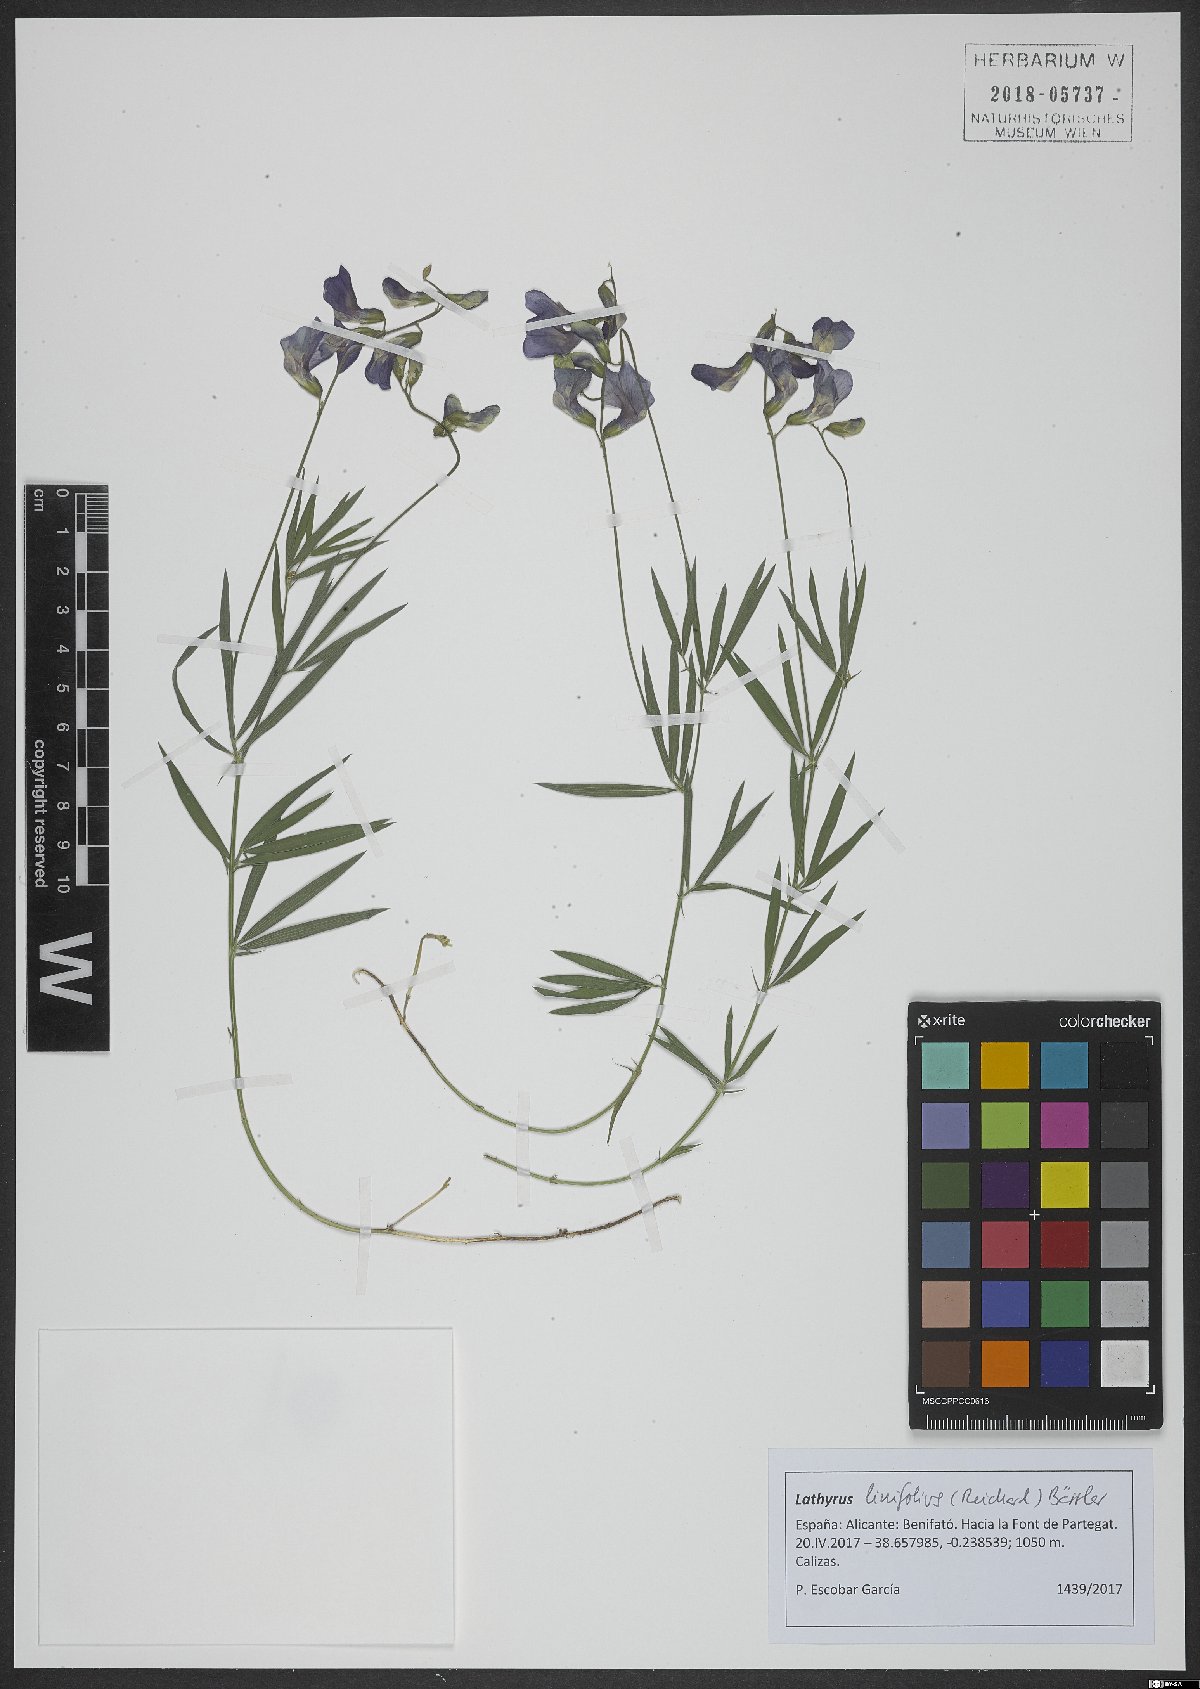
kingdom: Plantae
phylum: Tracheophyta
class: Magnoliopsida
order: Fabales
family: Fabaceae
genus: Lathyrus
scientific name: Lathyrus linifolius
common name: Bitter-vetch
